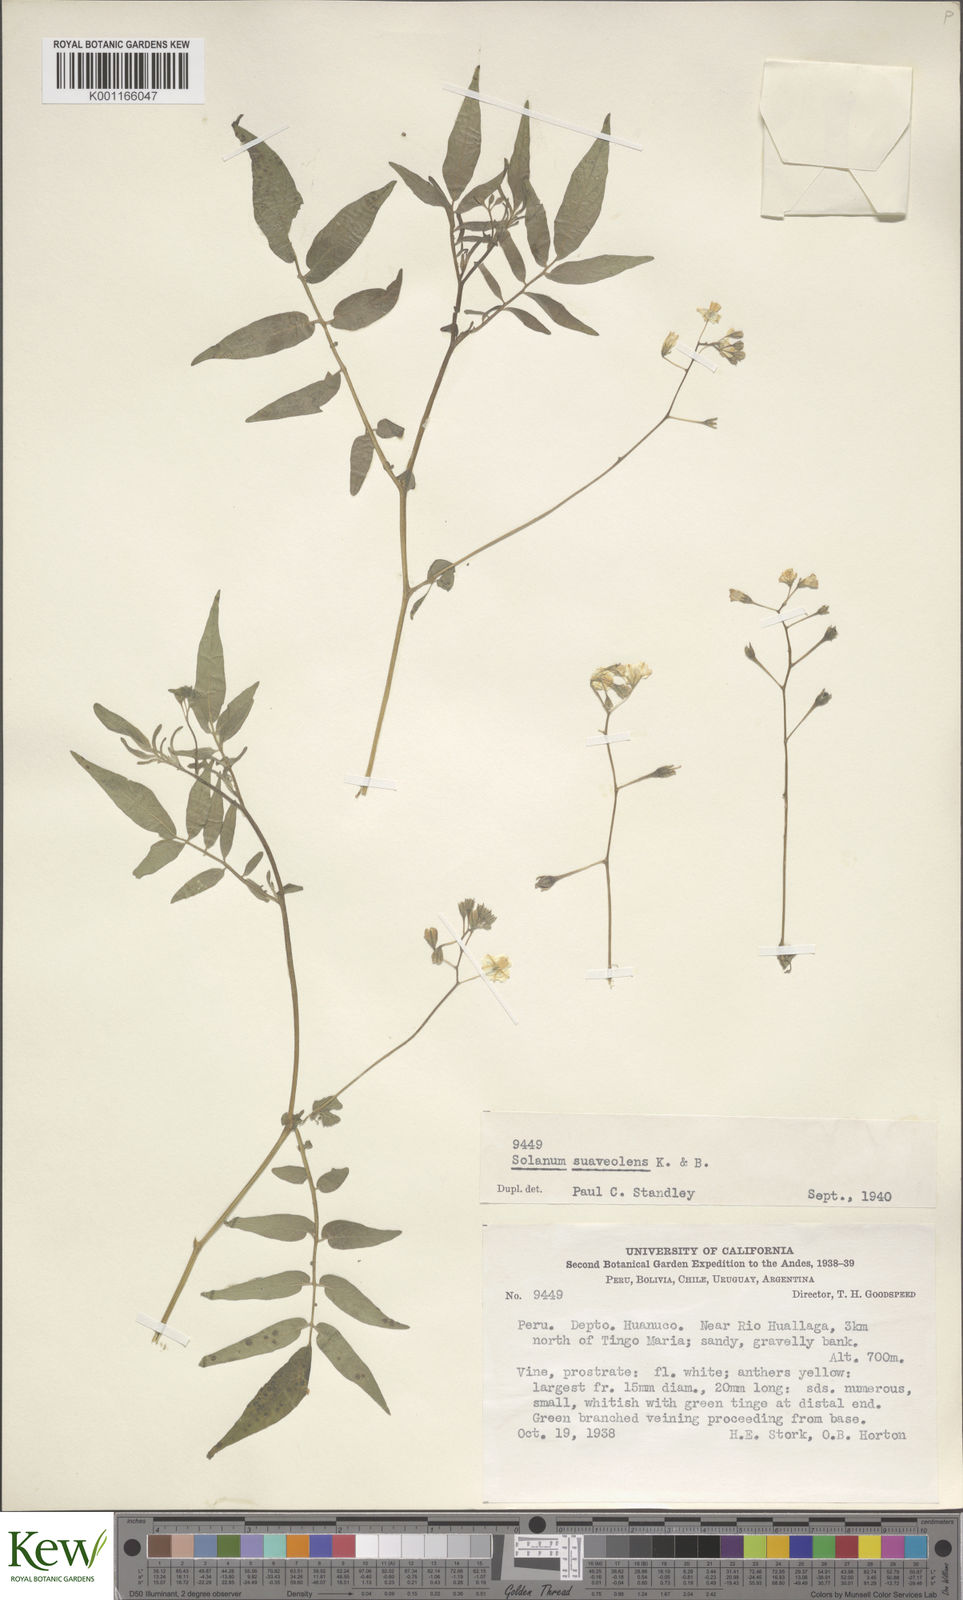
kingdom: Plantae
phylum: Tracheophyta
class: Magnoliopsida
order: Solanales
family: Solanaceae
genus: Solanum
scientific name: Solanum suaveolens
